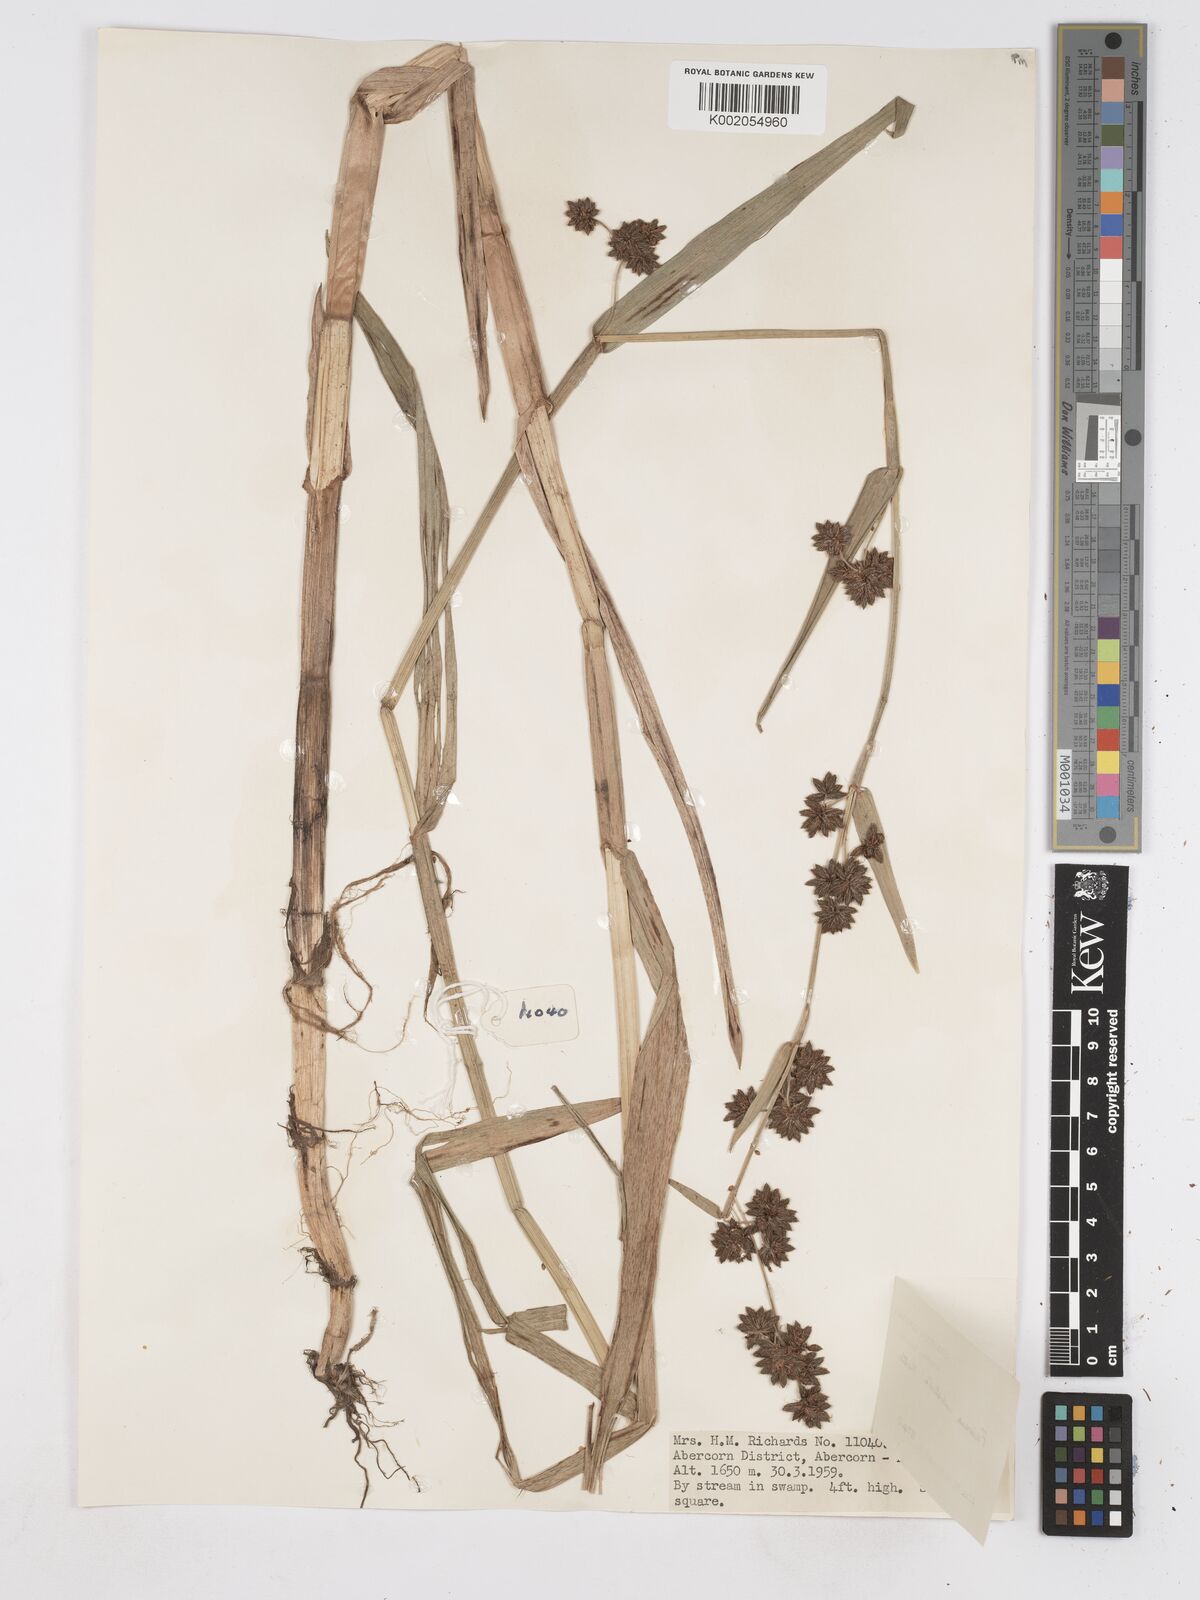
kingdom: Plantae
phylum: Tracheophyta
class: Liliopsida
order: Poales
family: Cyperaceae
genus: Fuirena
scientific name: Fuirena umbellata
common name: Yefen
